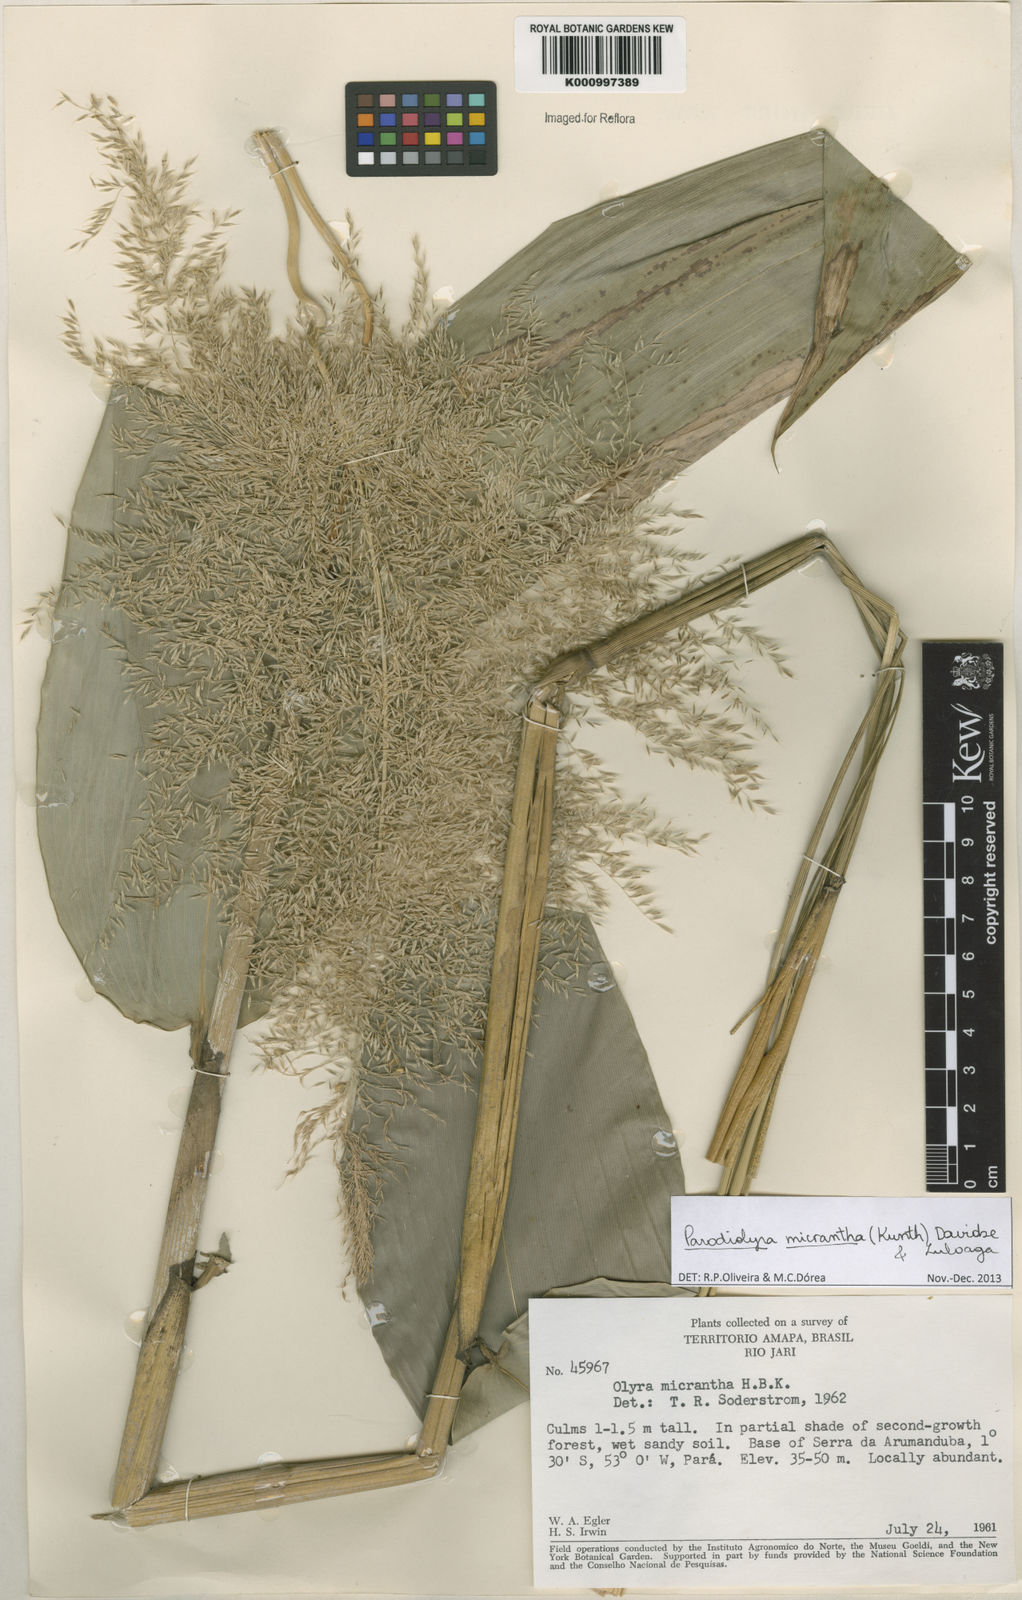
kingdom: Plantae
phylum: Tracheophyta
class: Liliopsida
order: Poales
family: Poaceae
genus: Taquara
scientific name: Taquara micrantha
